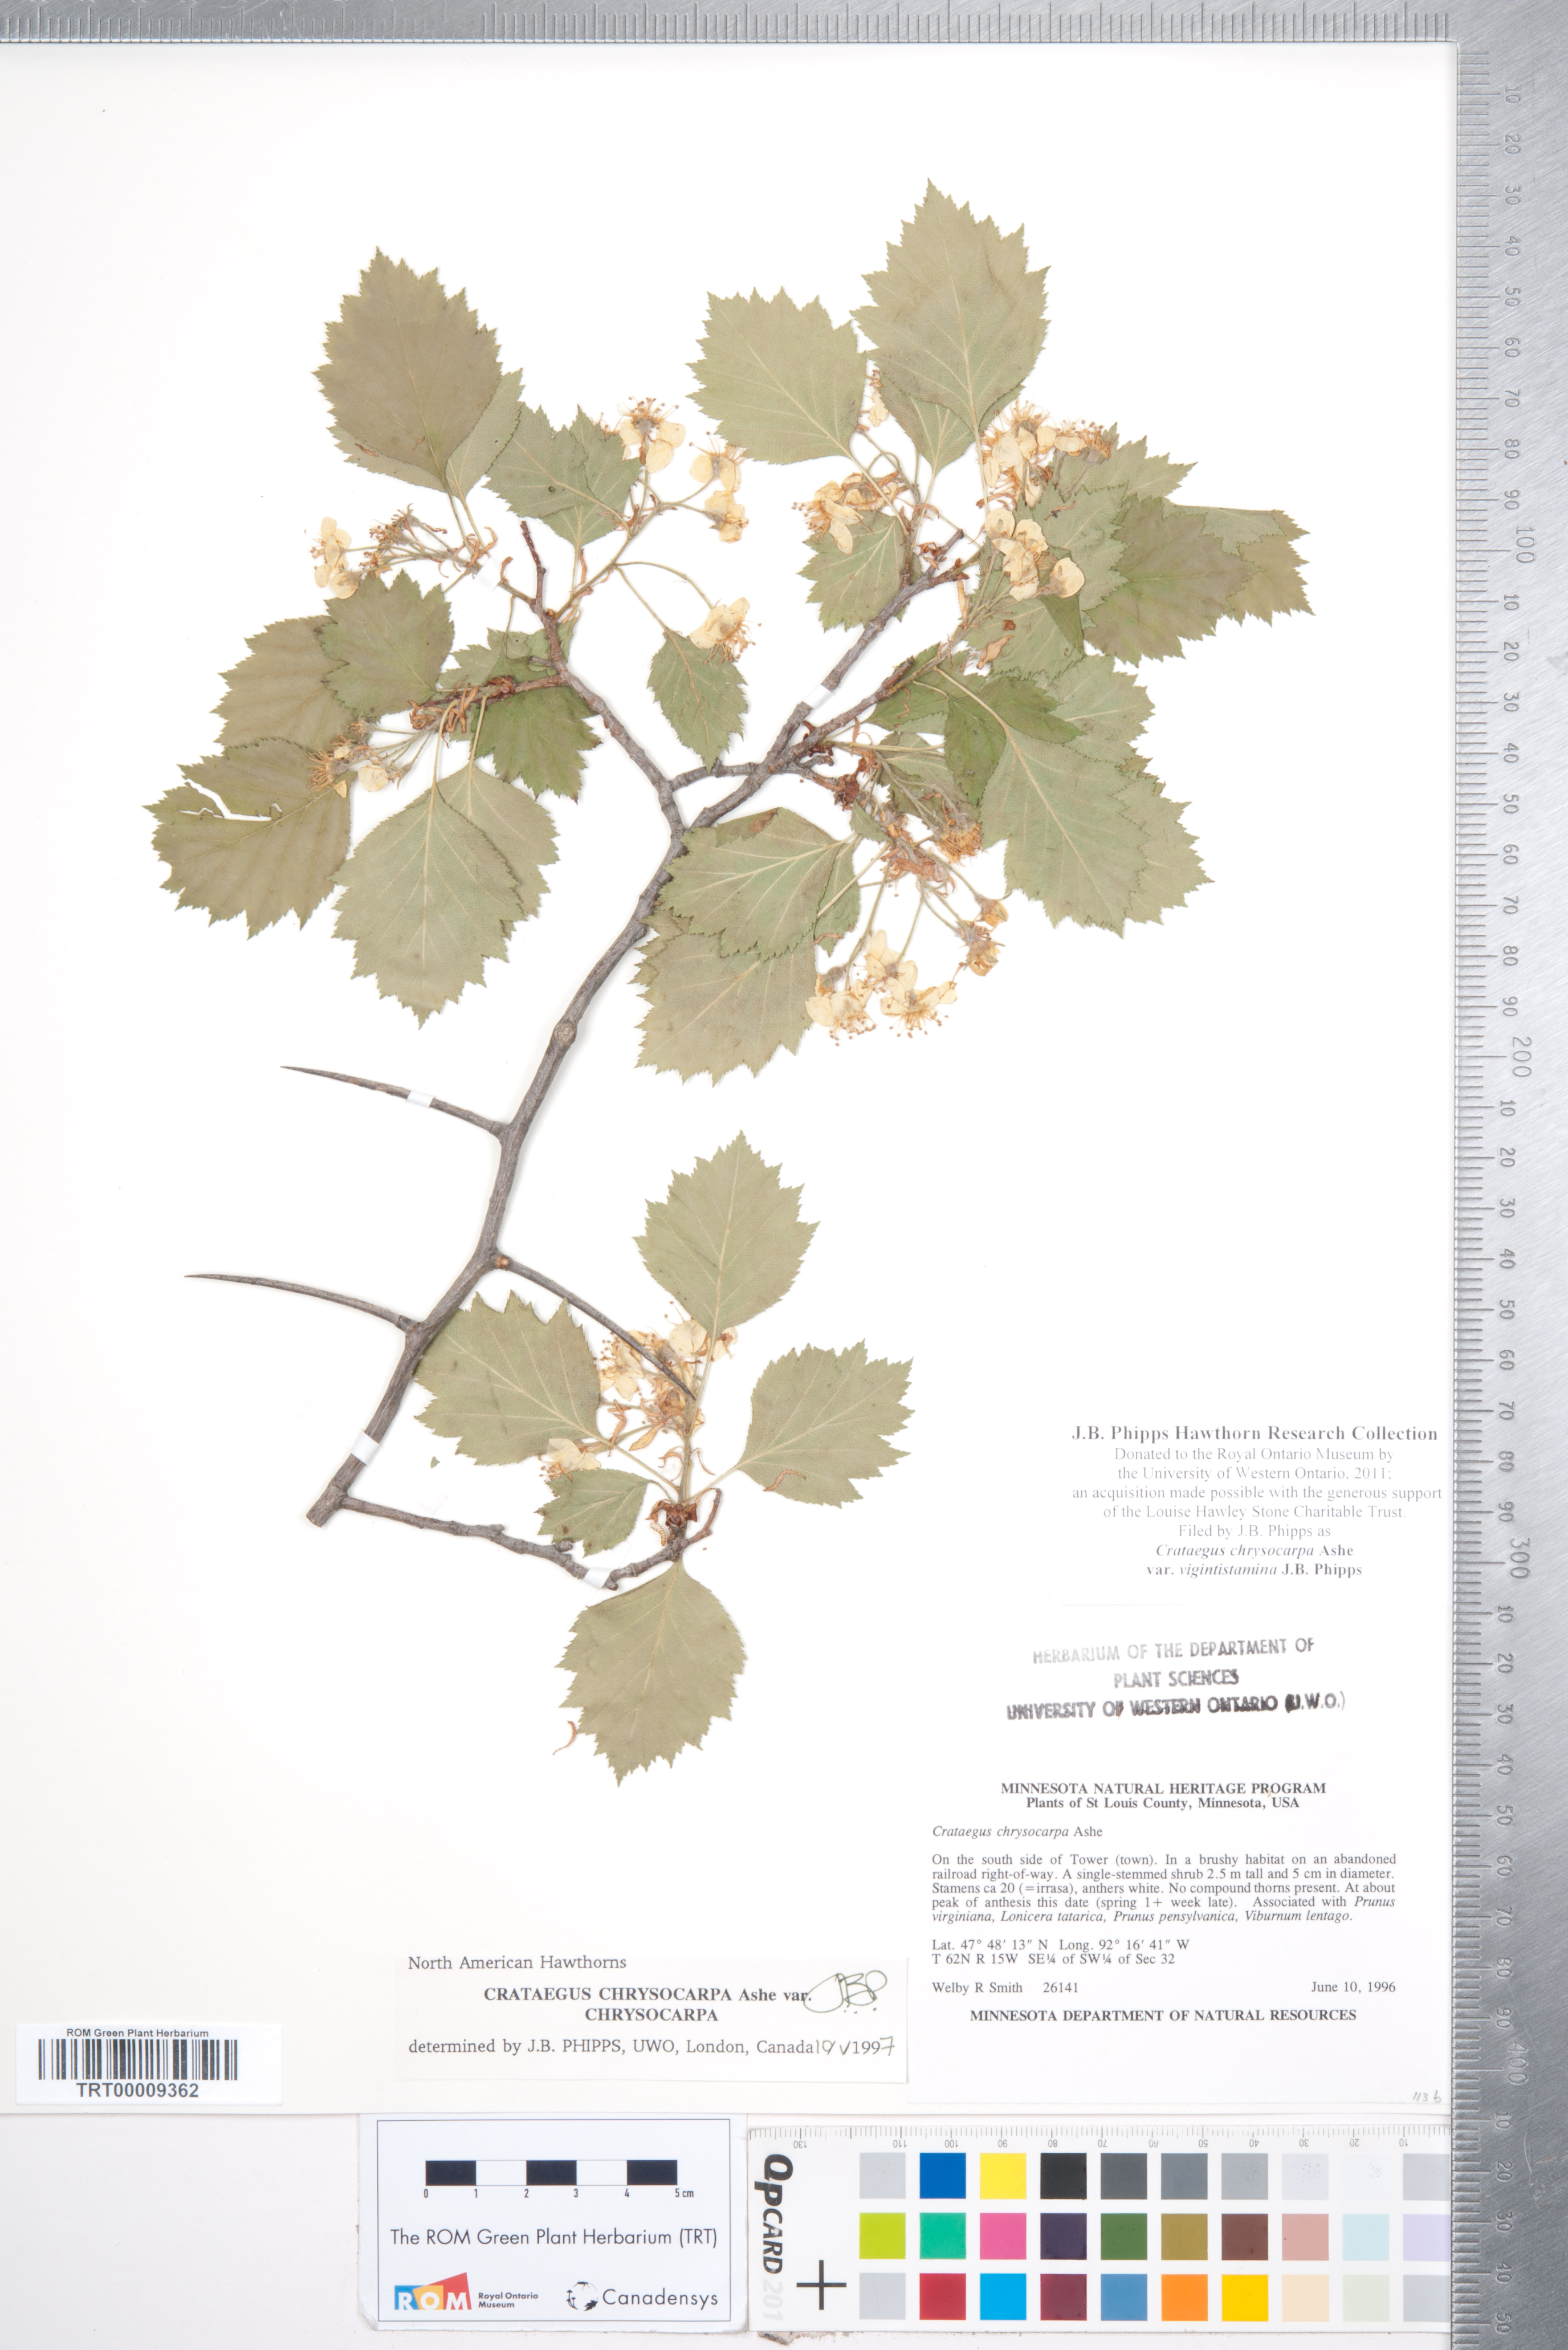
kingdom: Plantae
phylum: Tracheophyta
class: Magnoliopsida
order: Rosales
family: Rosaceae
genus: Crataegus
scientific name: Crataegus chrysocarpa
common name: Fire-berry hawthorn
